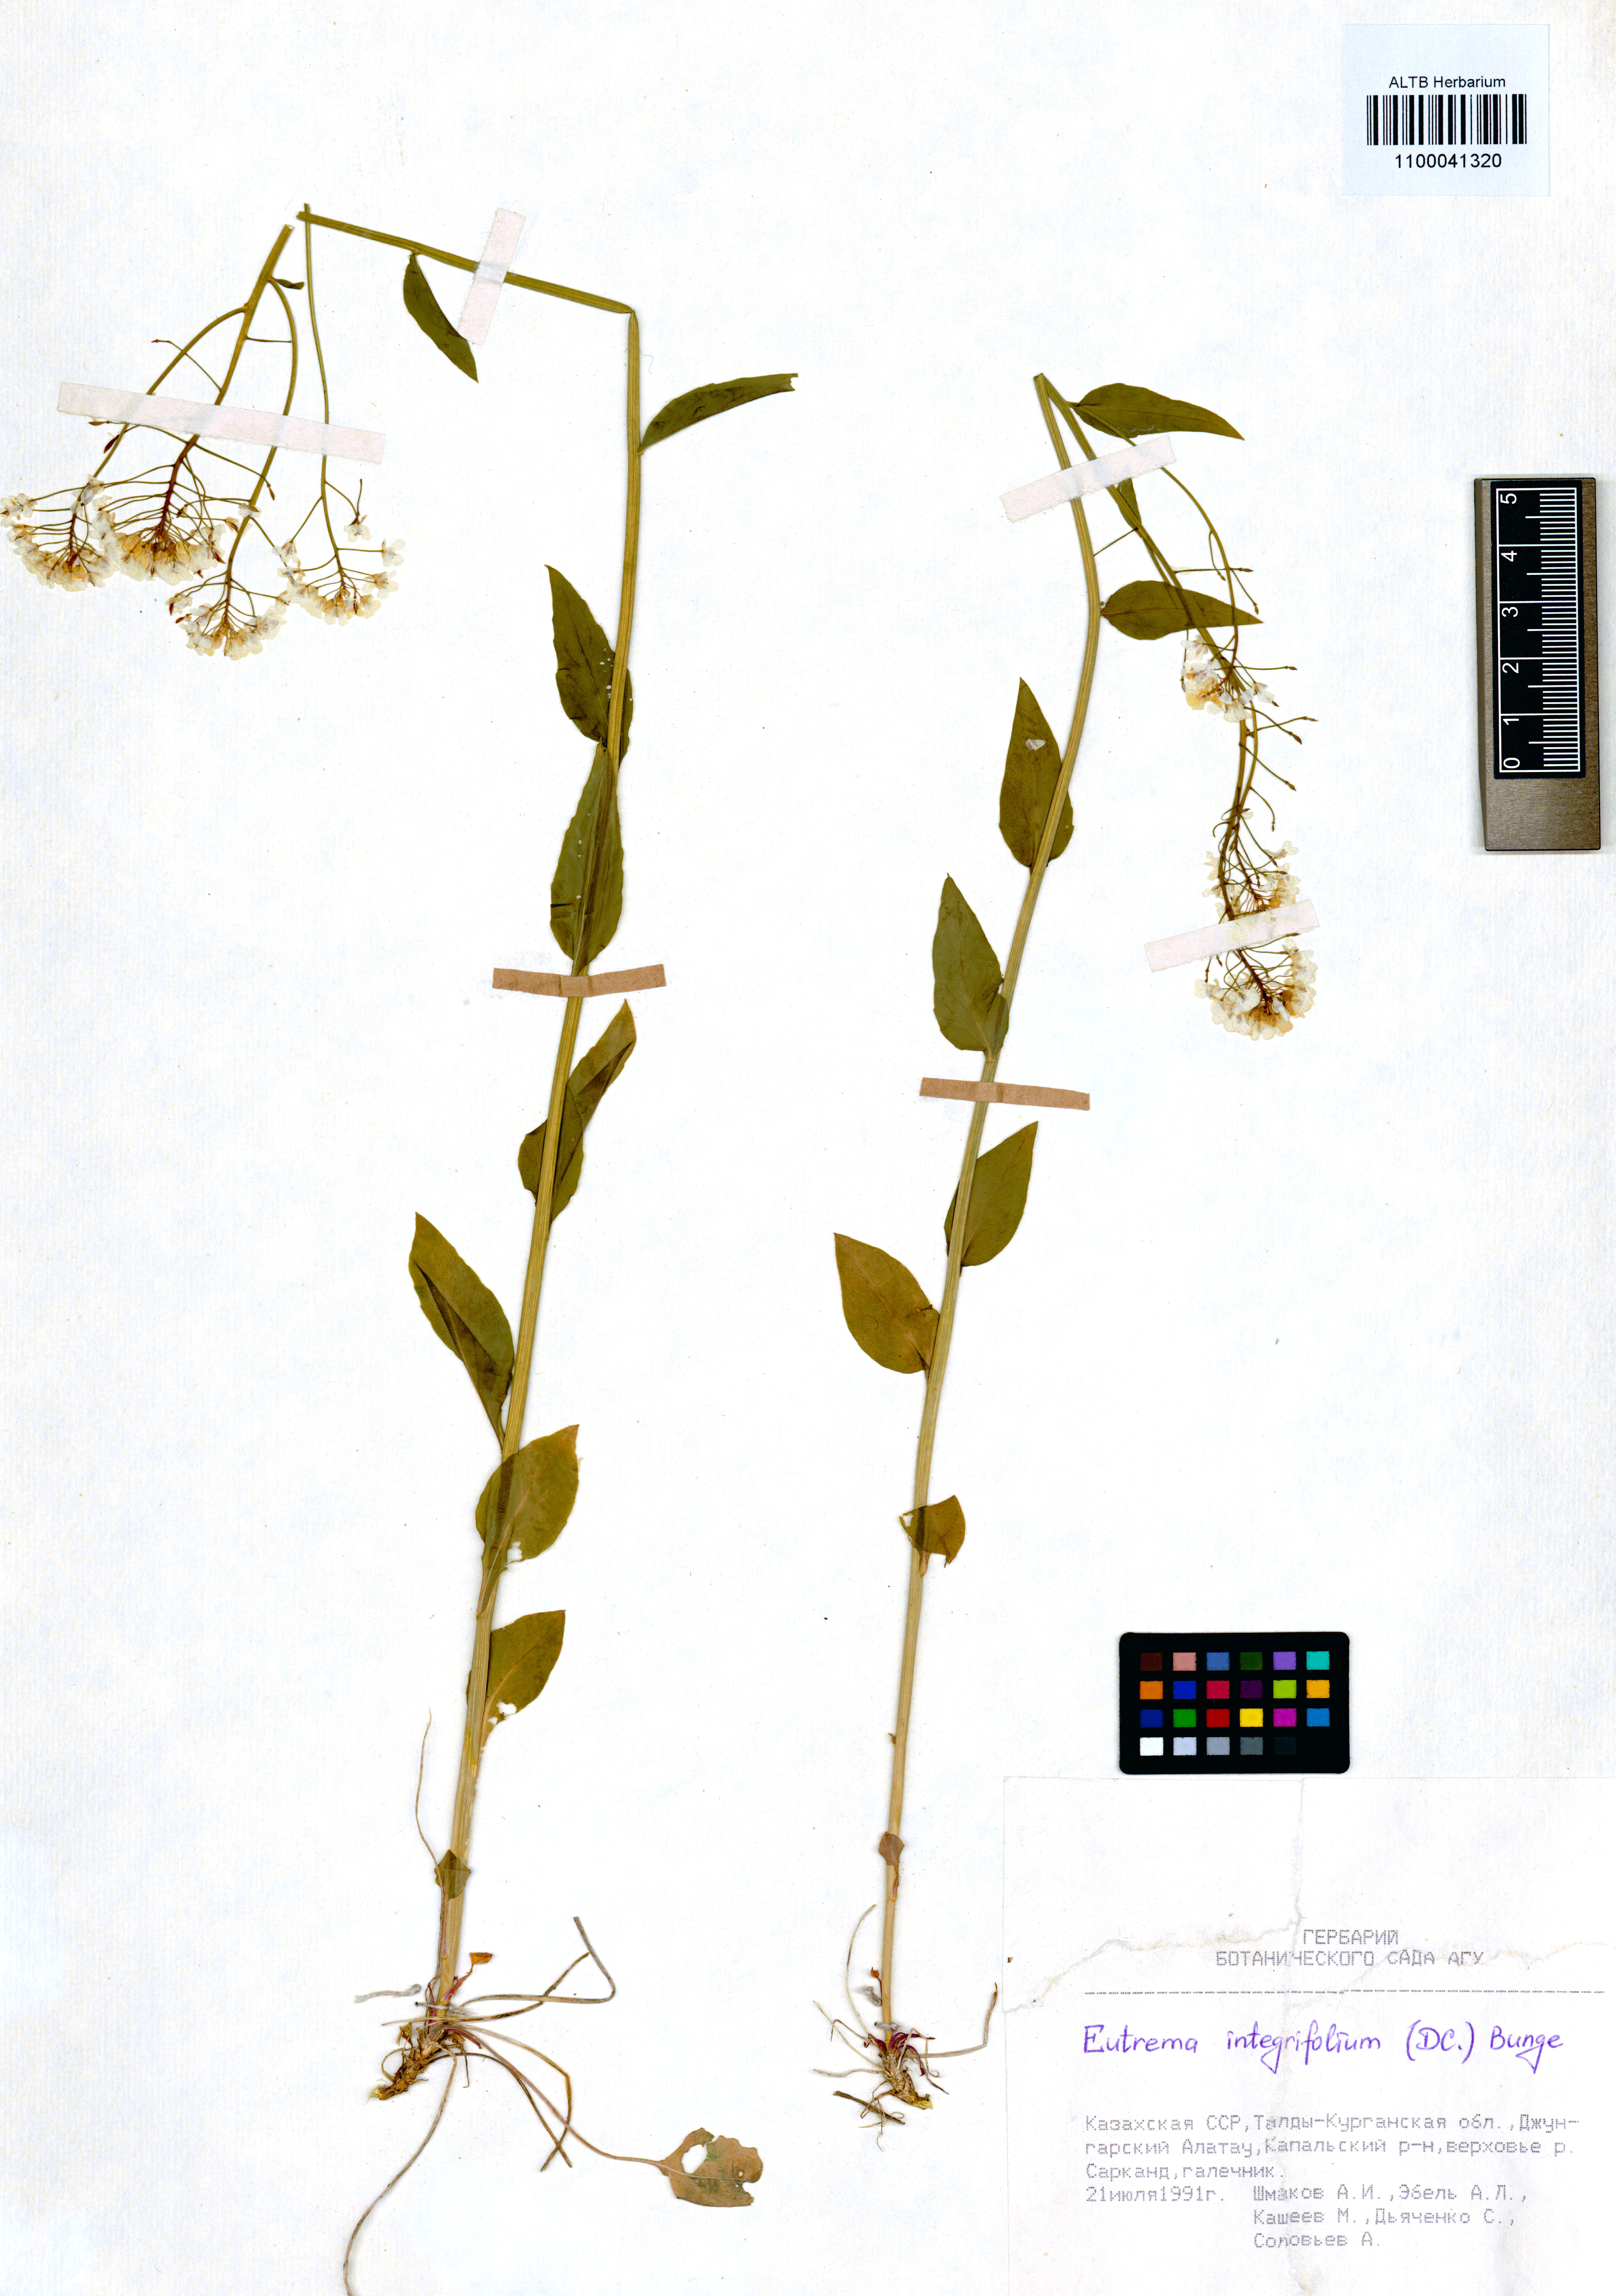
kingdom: Plantae
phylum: Tracheophyta
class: Magnoliopsida
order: Brassicales
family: Brassicaceae
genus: Eutrema
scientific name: Eutrema integrifolium
